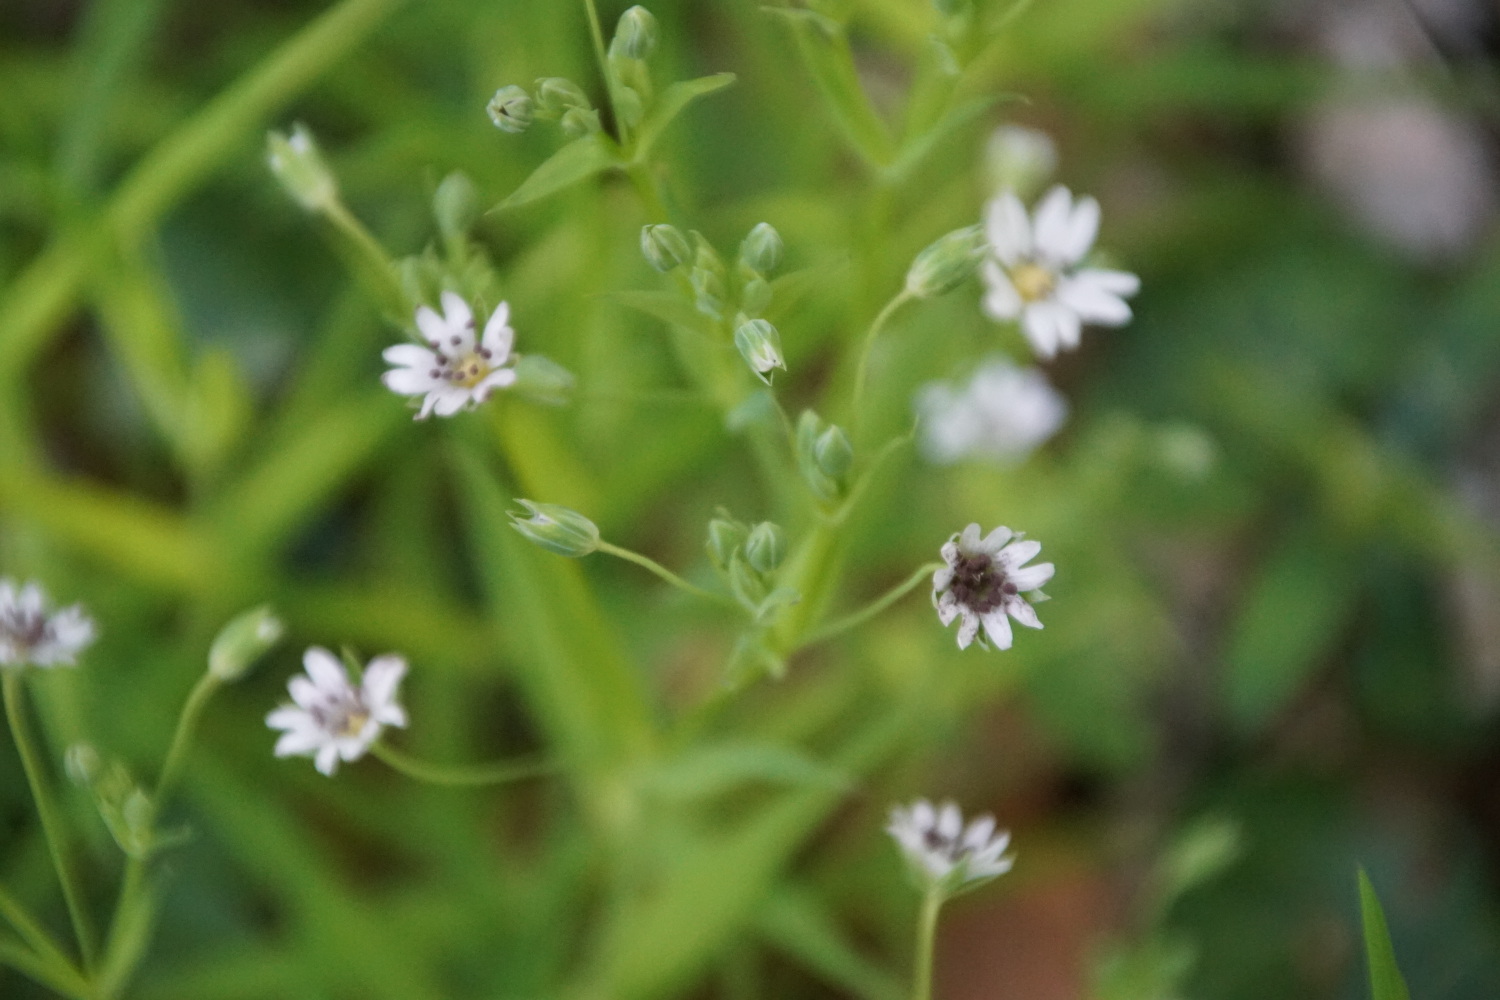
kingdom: Fungi
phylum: Basidiomycota
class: Microbotryomycetes
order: Microbotryales
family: Microbotryaceae
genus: Microbotryum
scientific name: Microbotryum stellariae
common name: fladstjerne-støvbladrust
